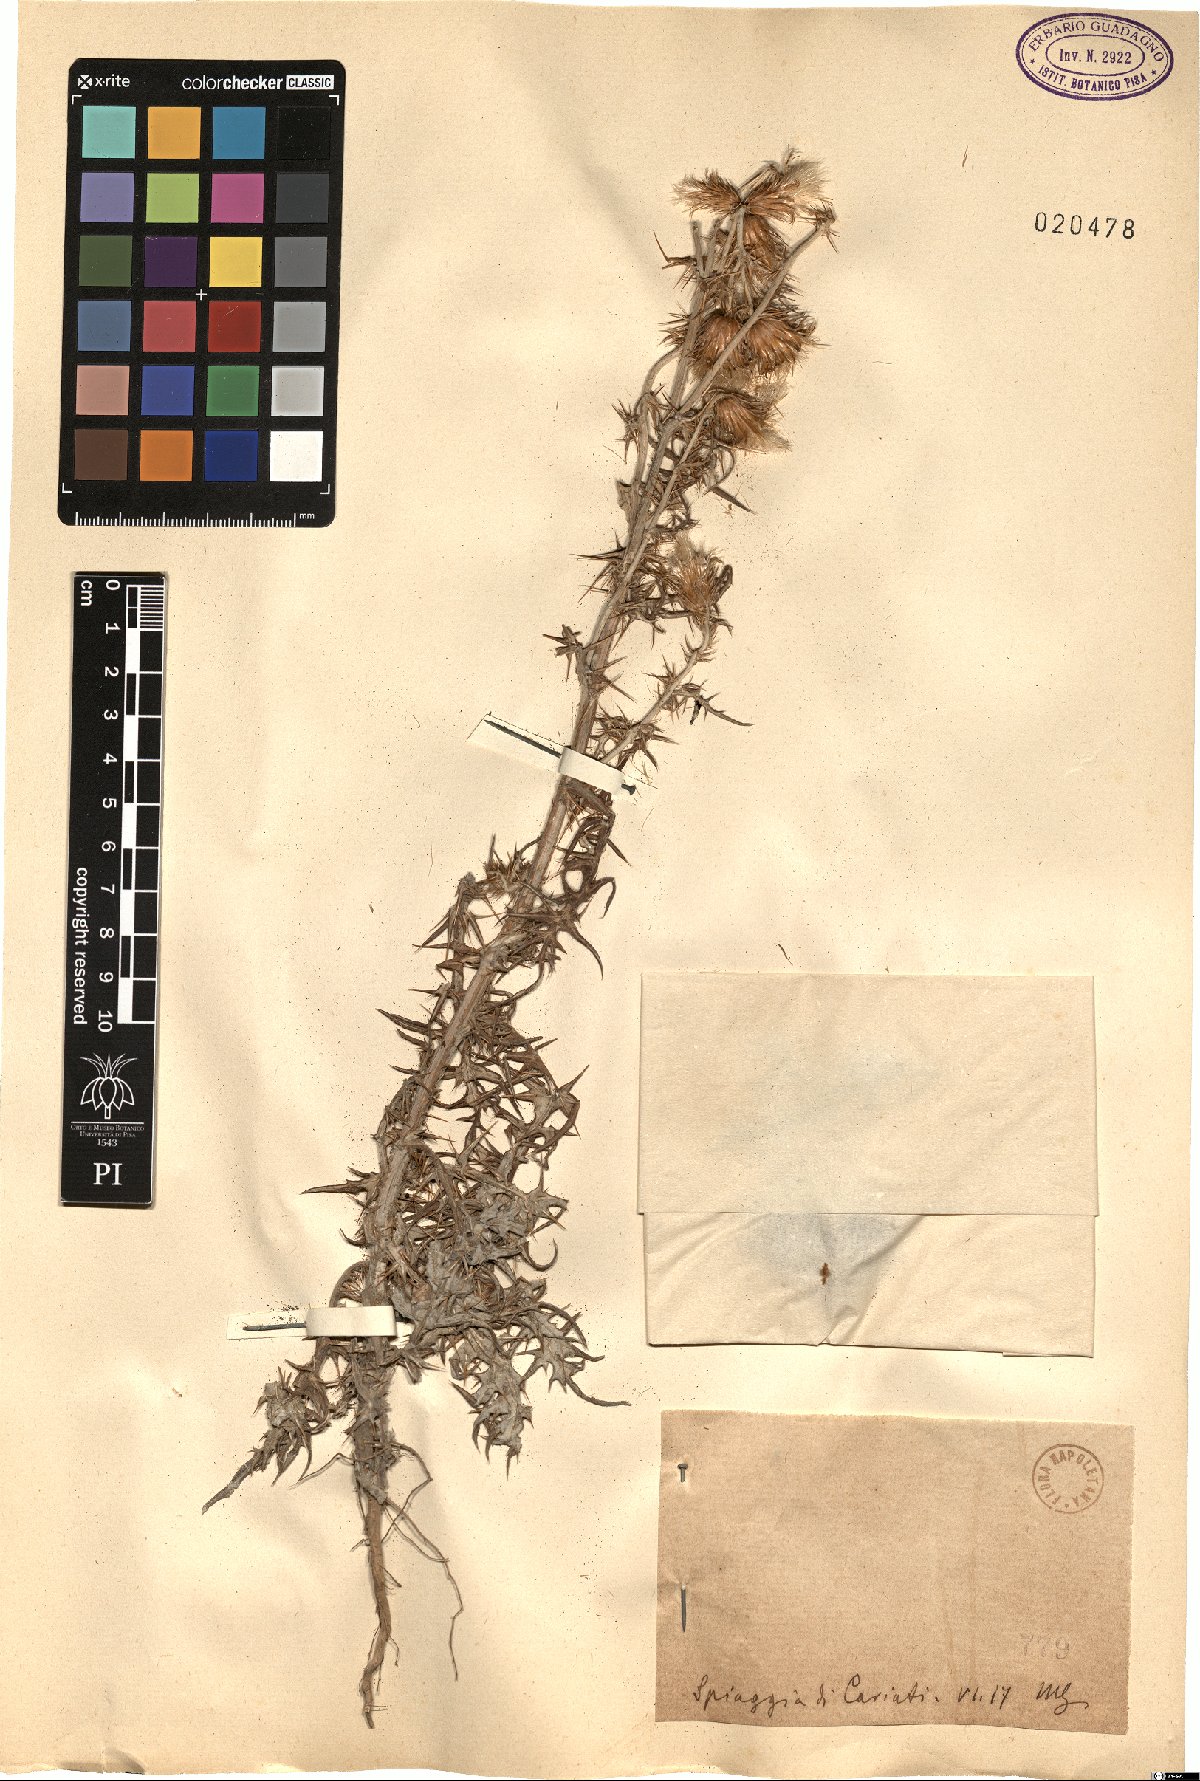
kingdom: Plantae
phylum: Tracheophyta
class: Magnoliopsida
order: Asterales
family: Asteraceae
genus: Carduus
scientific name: Carduus
